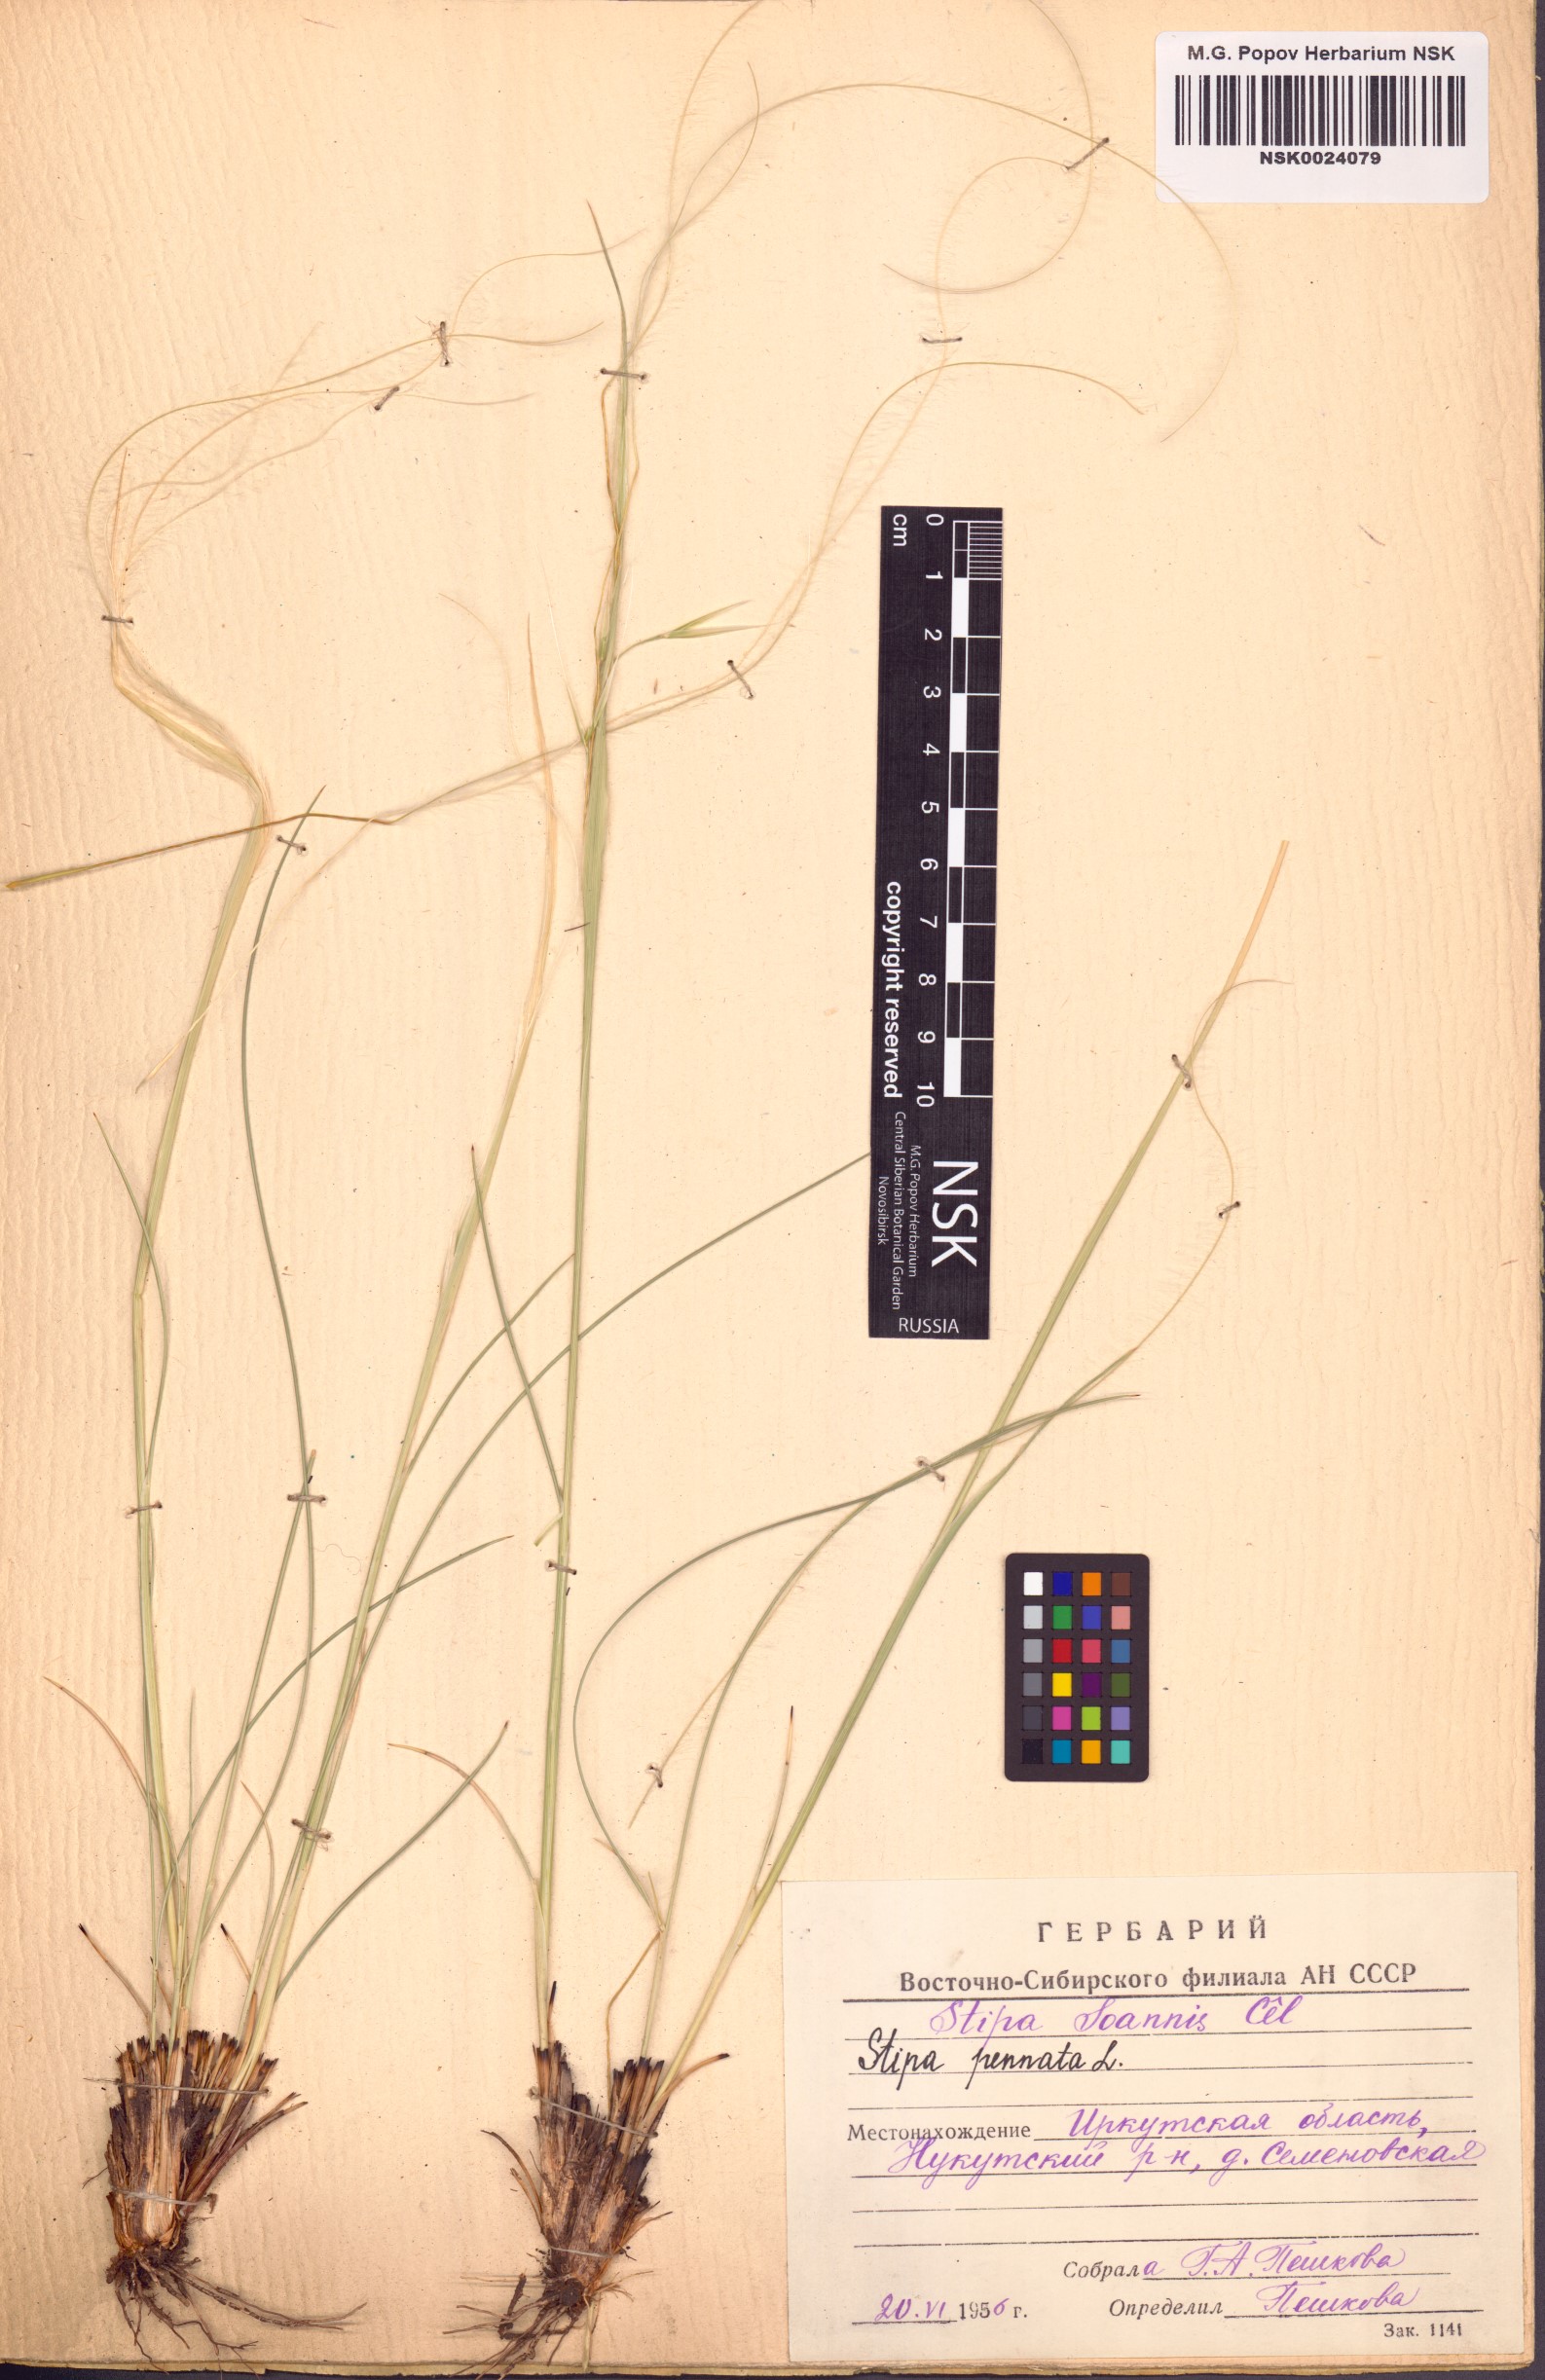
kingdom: Plantae
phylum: Tracheophyta
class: Liliopsida
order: Poales
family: Poaceae
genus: Stipa
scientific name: Stipa pennata
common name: European feather grass
